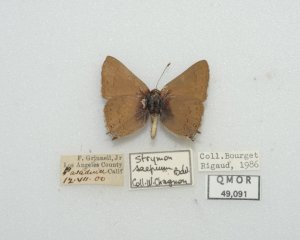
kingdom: Animalia
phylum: Arthropoda
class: Insecta
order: Lepidoptera
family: Lycaenidae
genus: Strymon
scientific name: Strymon saepium
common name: Hedgerow Hairstreak
